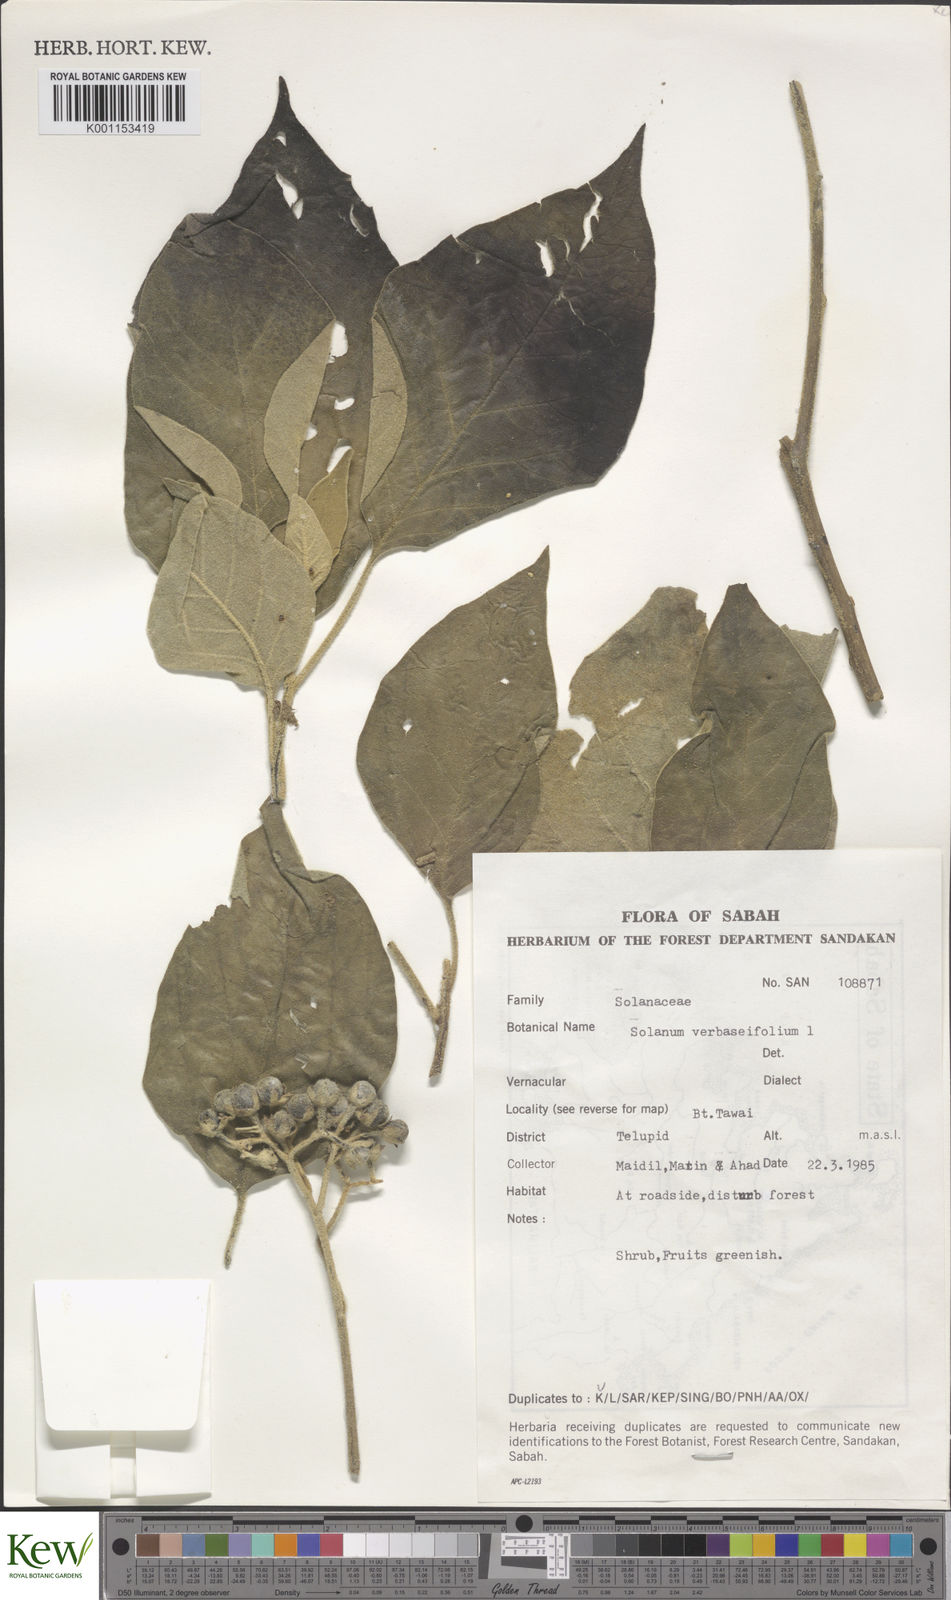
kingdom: Plantae
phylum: Tracheophyta
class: Magnoliopsida
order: Solanales
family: Solanaceae
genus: Solanum
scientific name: Solanum erianthum
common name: Tobacco-tree
